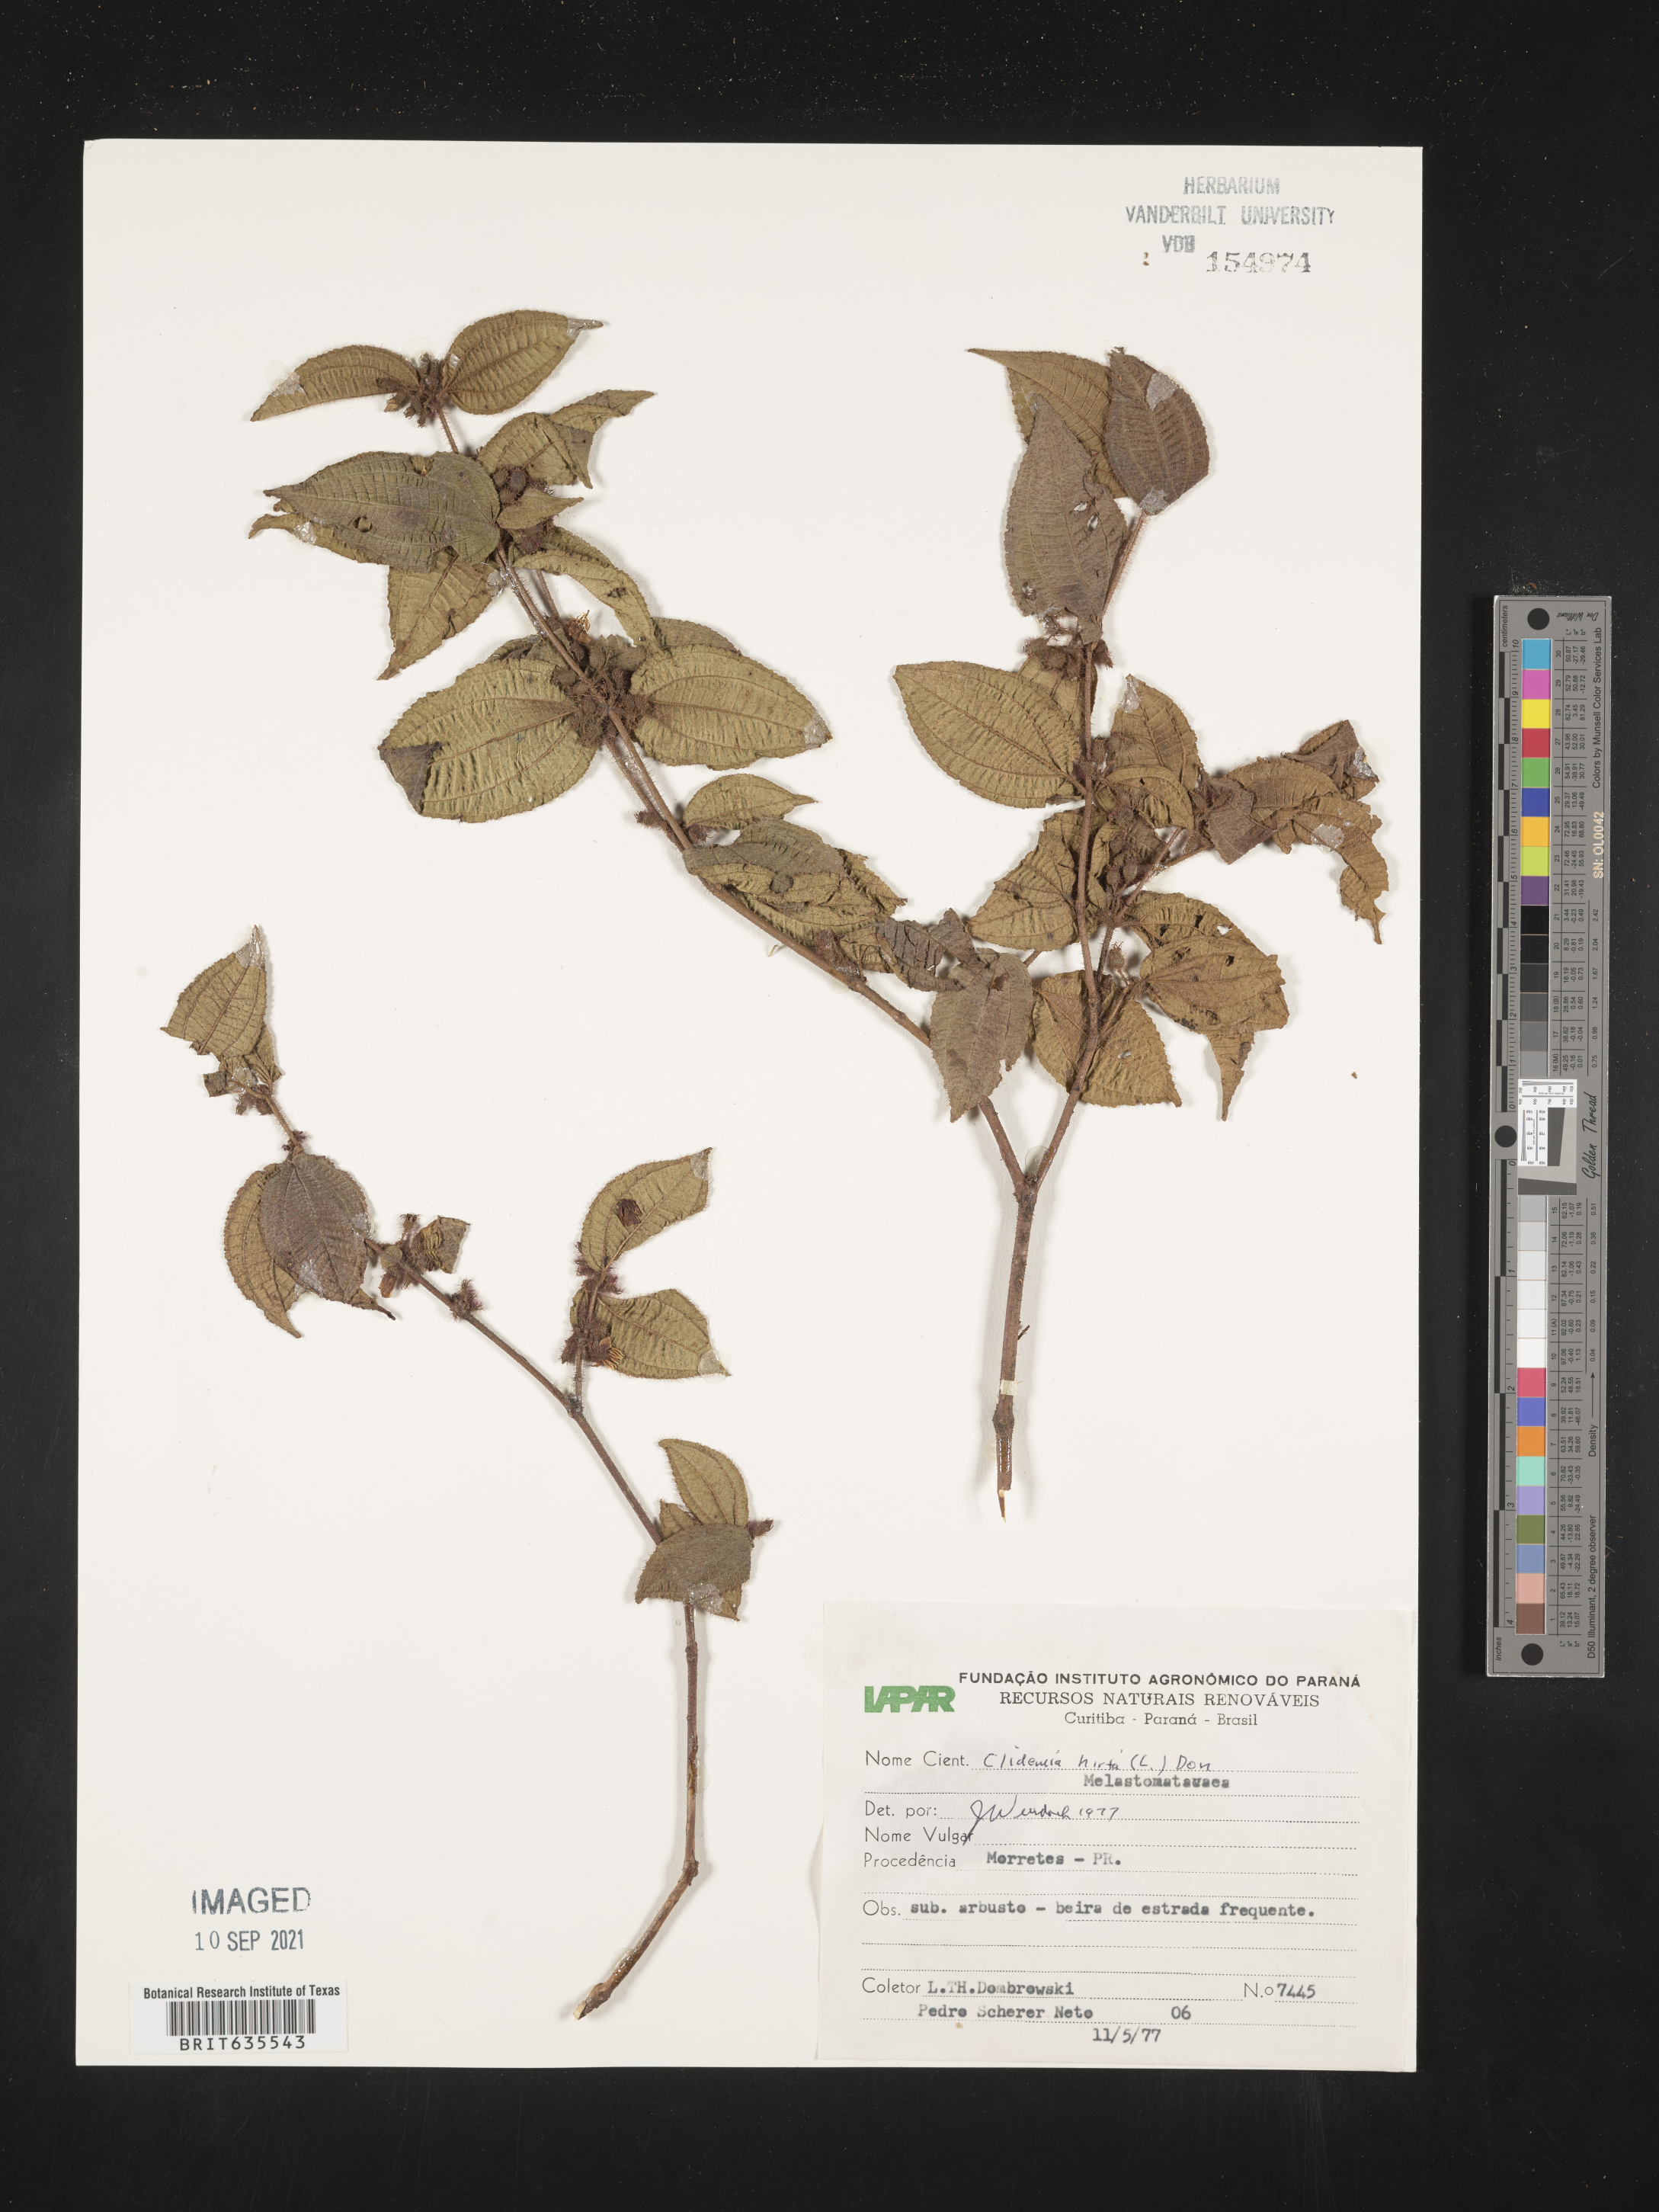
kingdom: Plantae
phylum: Tracheophyta
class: Magnoliopsida
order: Myrtales
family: Melastomataceae
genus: Miconia
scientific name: Miconia
